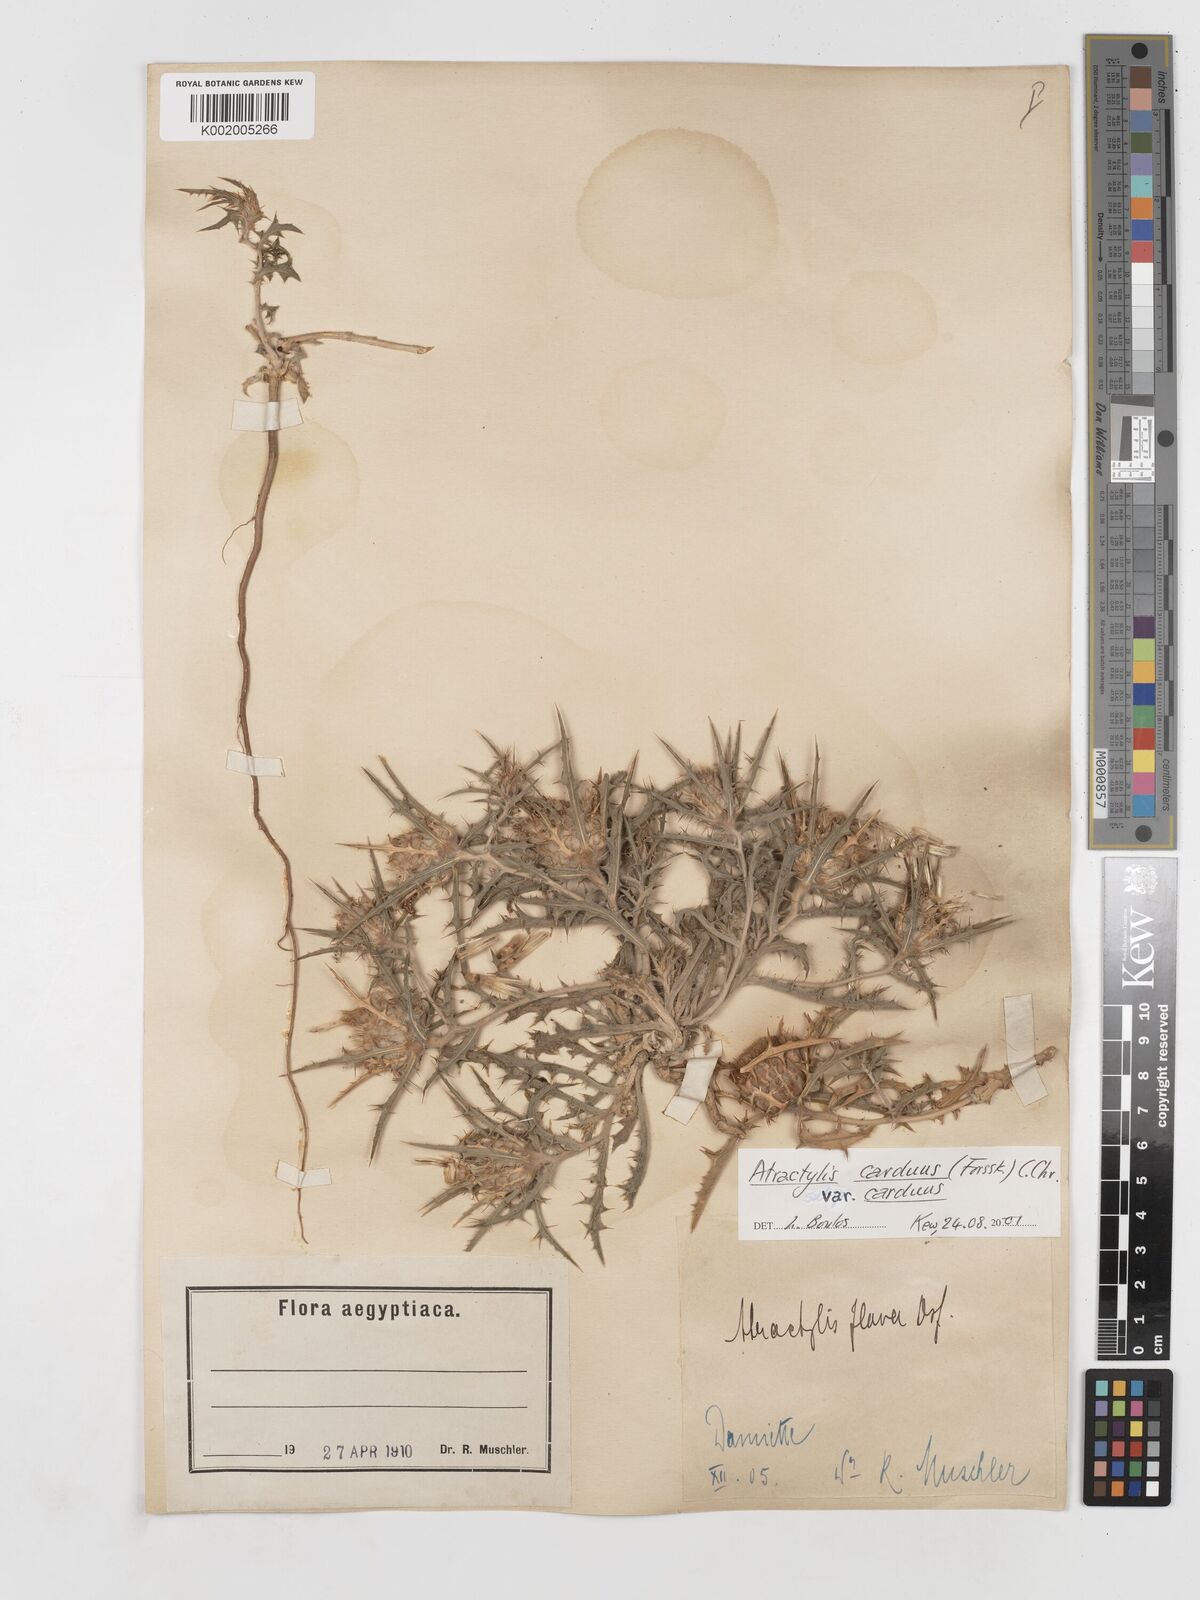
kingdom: Plantae
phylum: Tracheophyta
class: Magnoliopsida
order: Asterales
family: Asteraceae
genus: Atractylis
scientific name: Atractylis carduus
